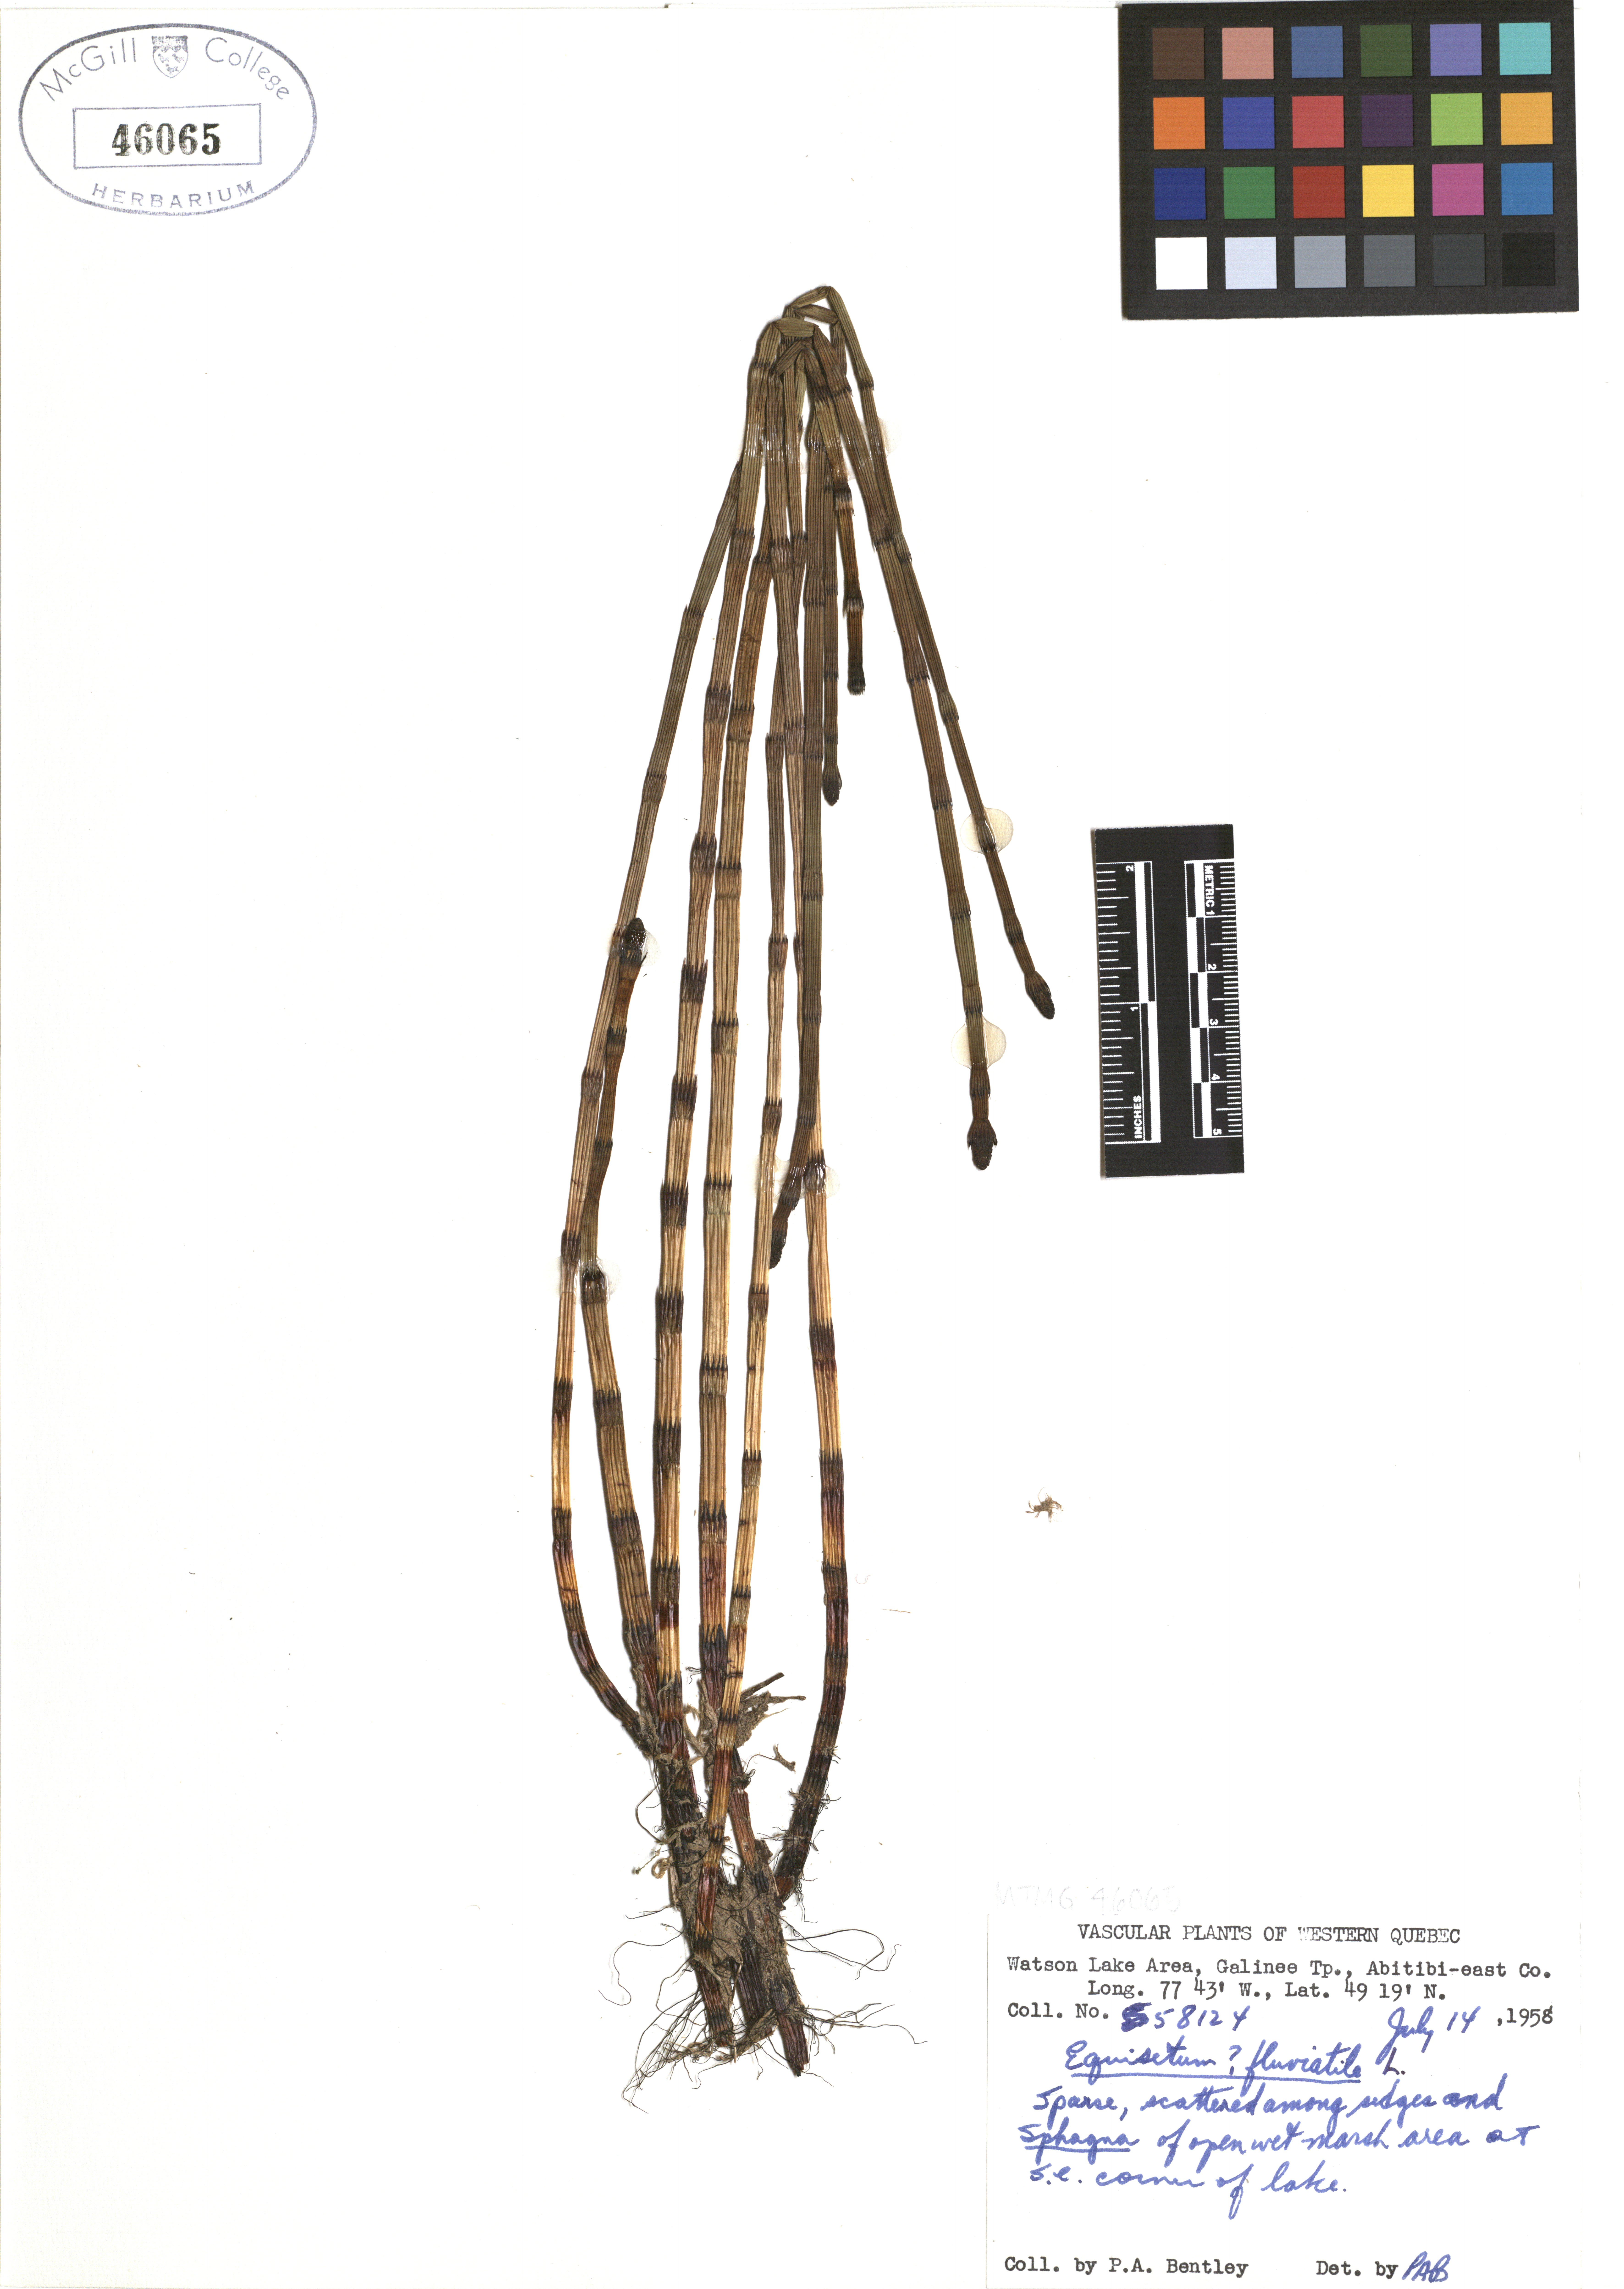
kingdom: Plantae
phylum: Tracheophyta
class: Polypodiopsida
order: Equisetales
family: Equisetaceae
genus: Equisetum
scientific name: Equisetum fluviatile
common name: Water horsetail
